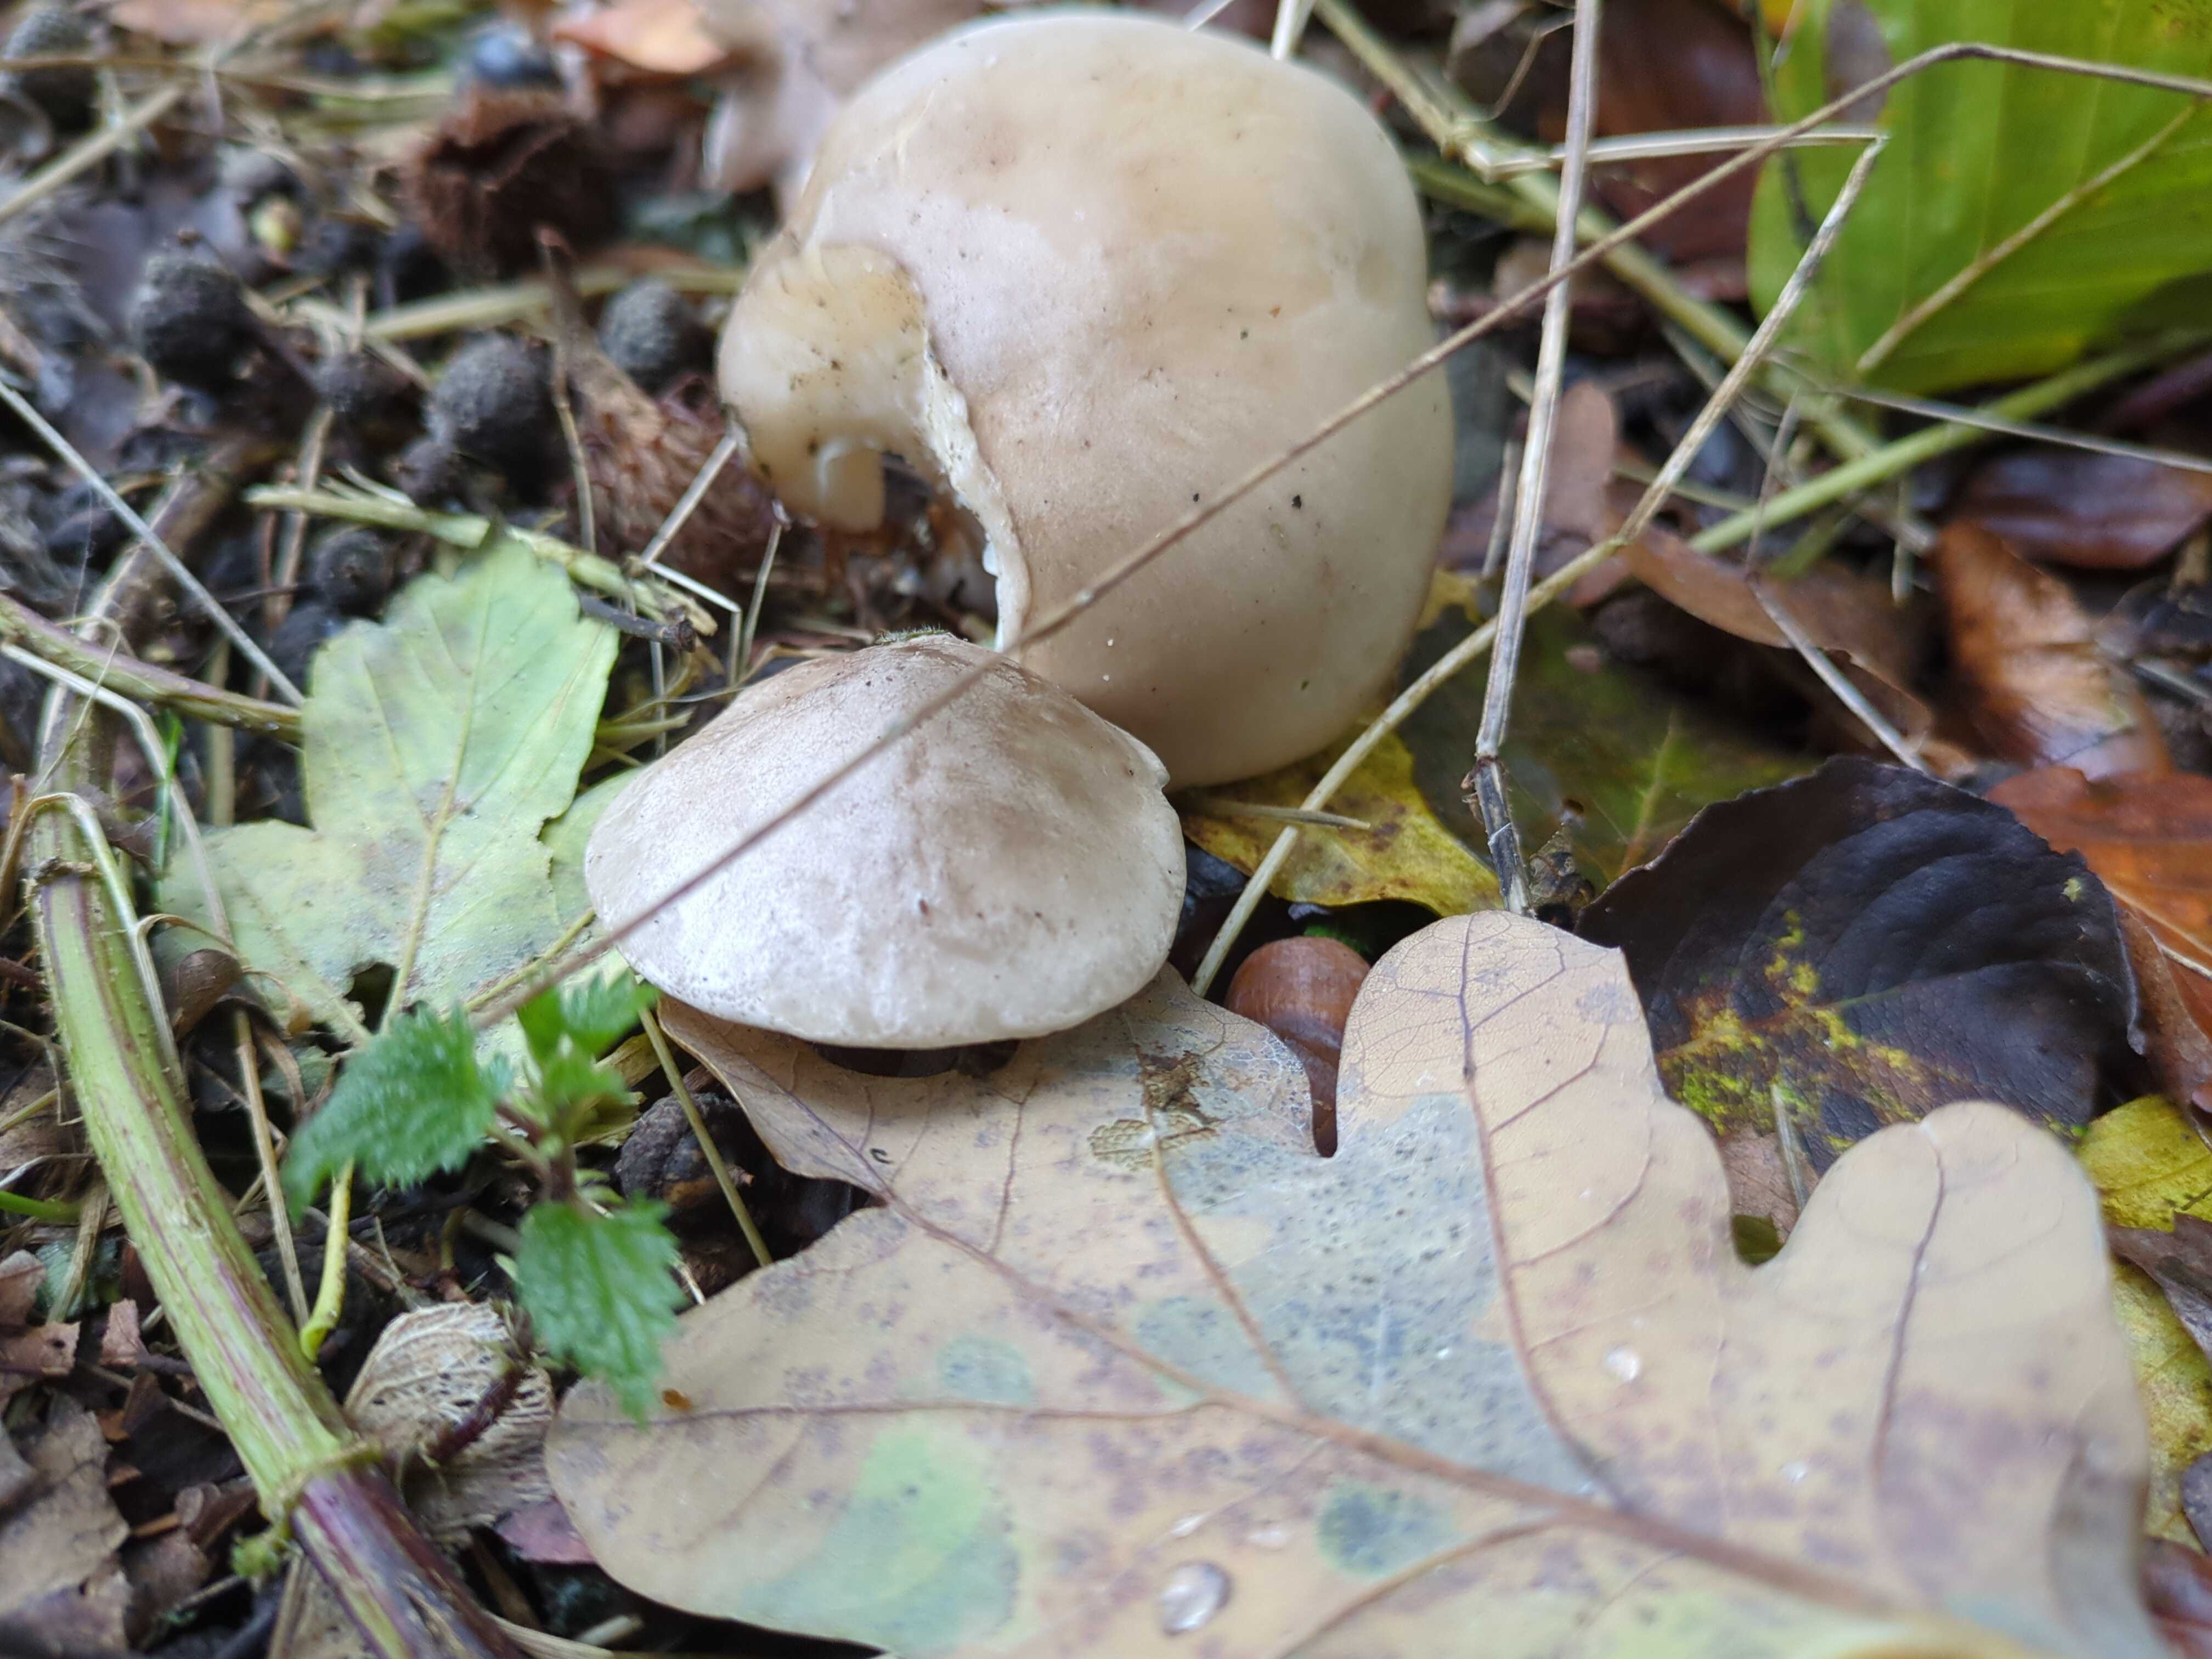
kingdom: Fungi
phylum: Basidiomycota
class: Agaricomycetes
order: Agaricales
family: Tricholomataceae
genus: Clitocybe
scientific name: Clitocybe nebularis
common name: tåge-tragthat
